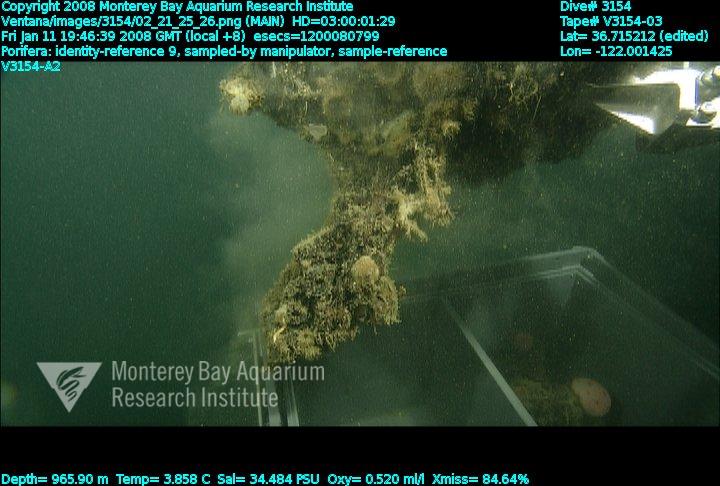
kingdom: Animalia
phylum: Porifera
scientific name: Porifera
